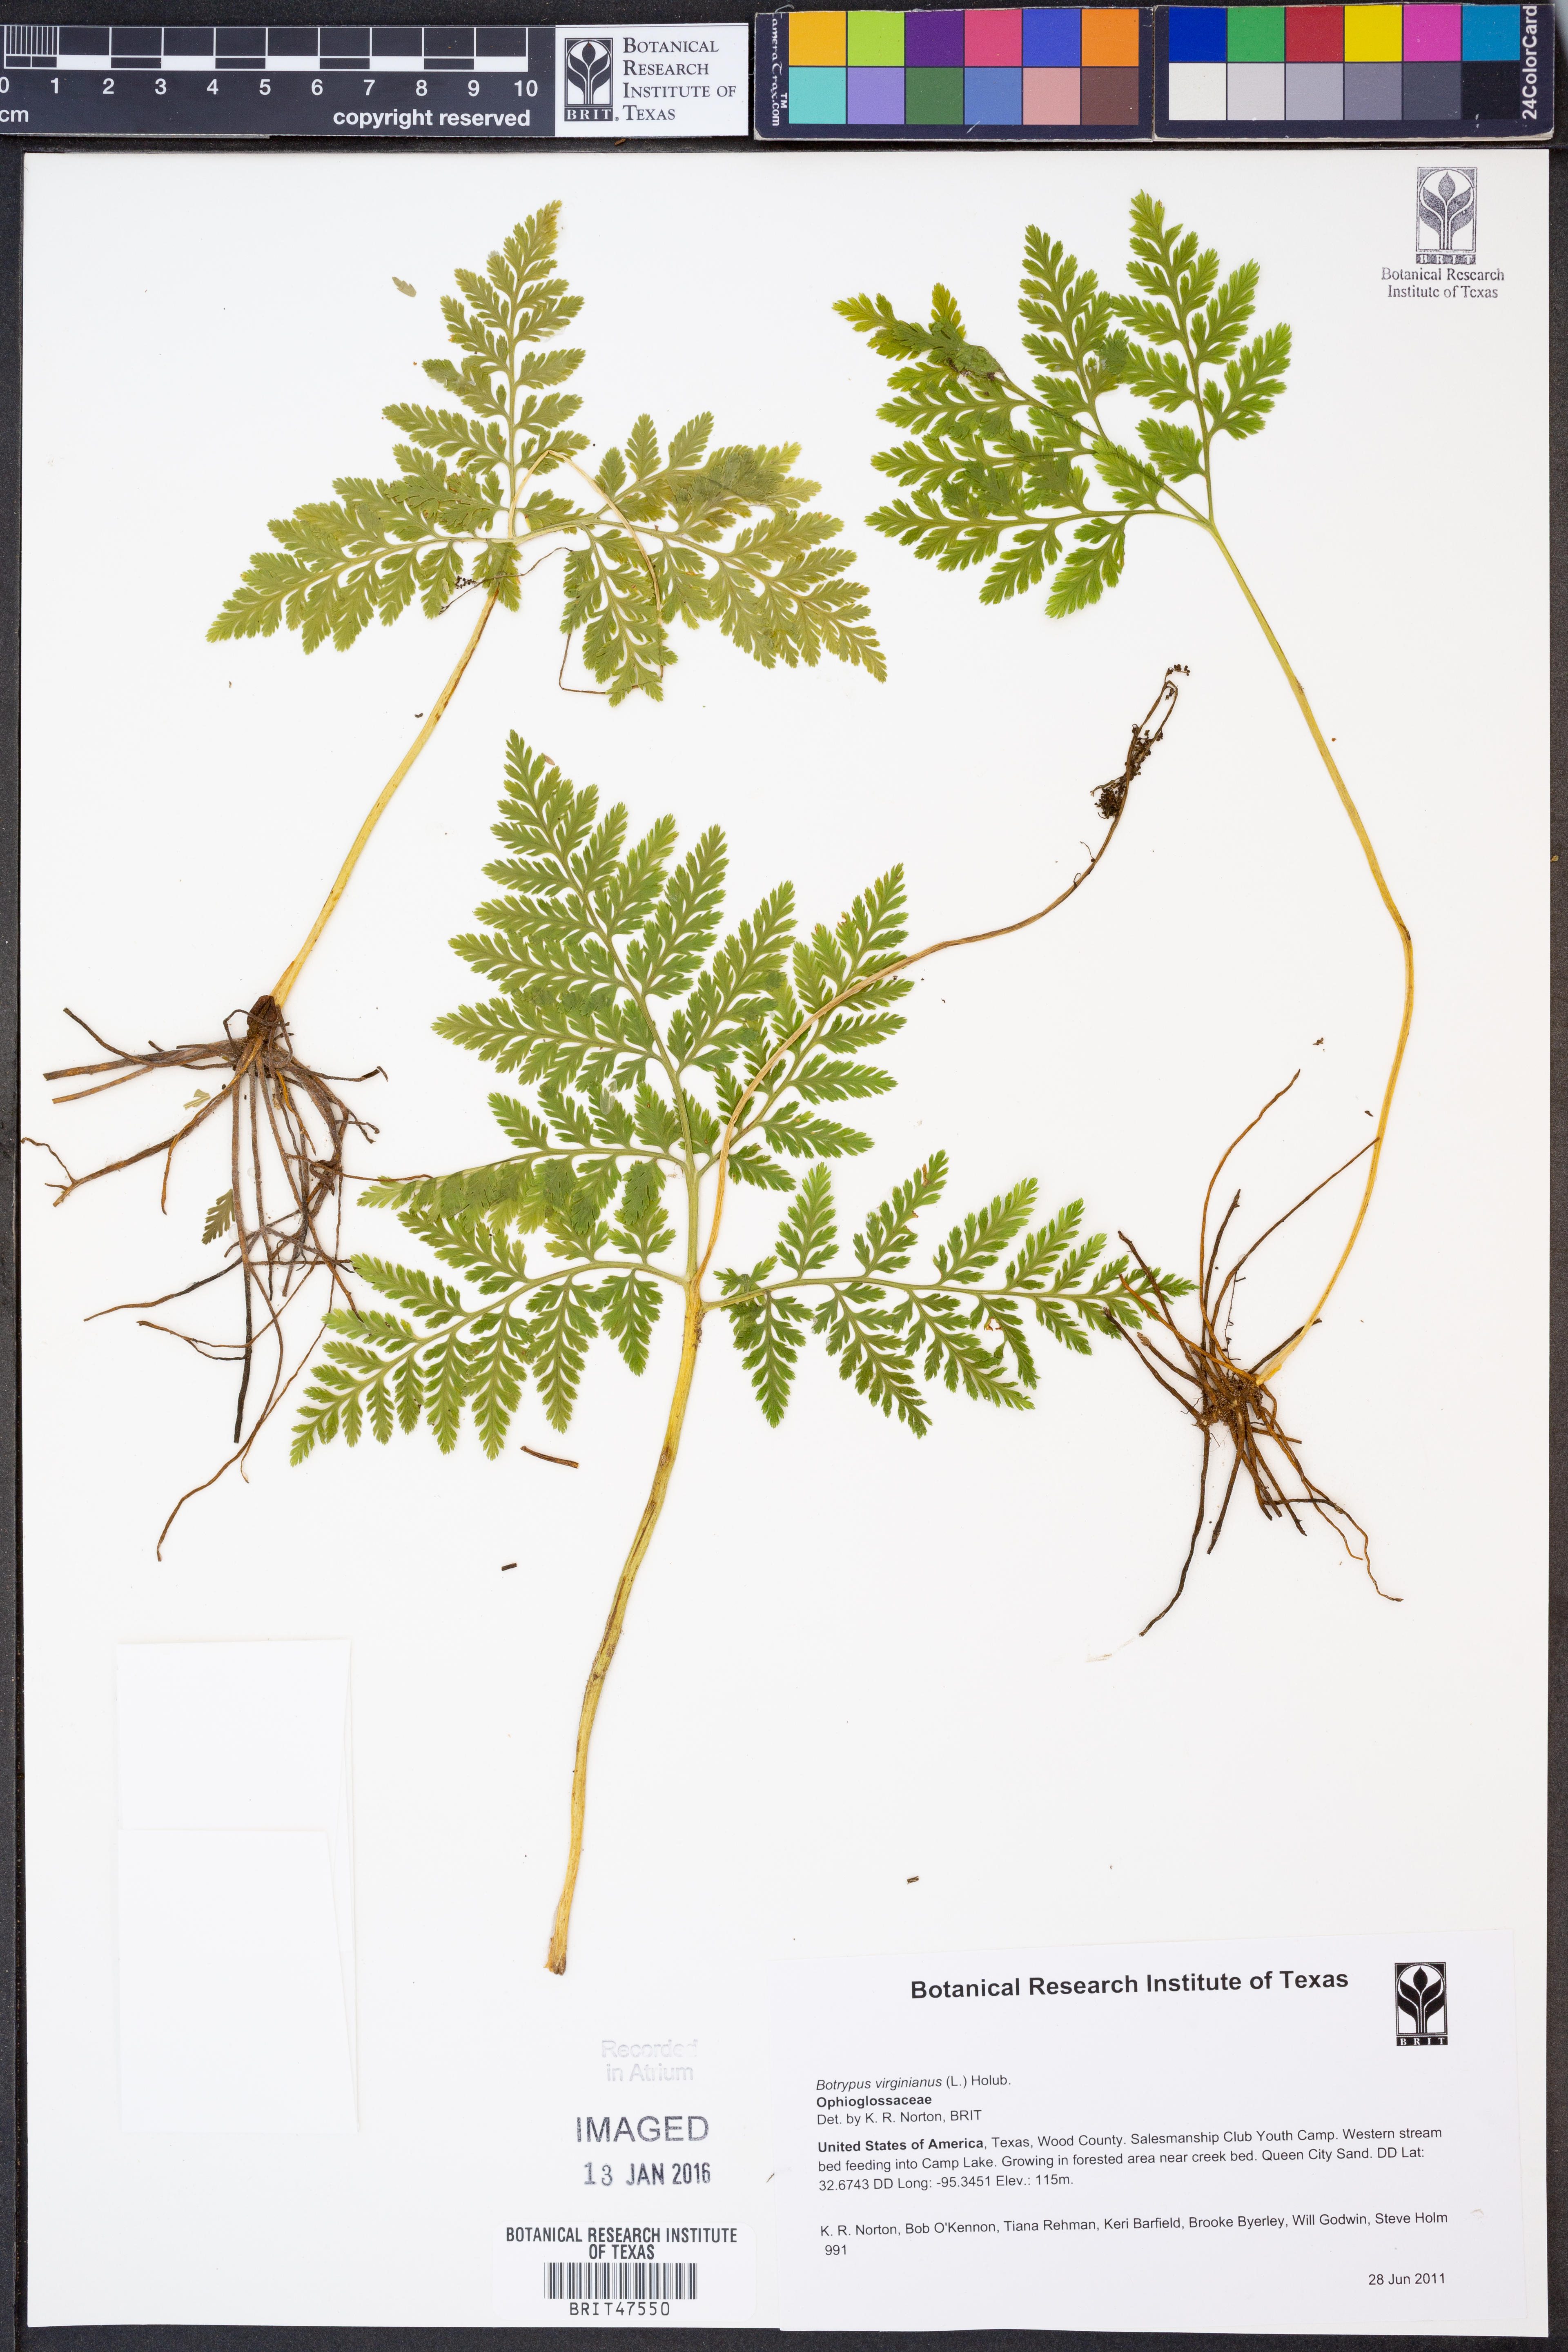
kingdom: Plantae
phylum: Tracheophyta
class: Polypodiopsida
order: Ophioglossales
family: Ophioglossaceae
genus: Botrypus
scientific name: Botrypus virginianus
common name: Common grapefern
